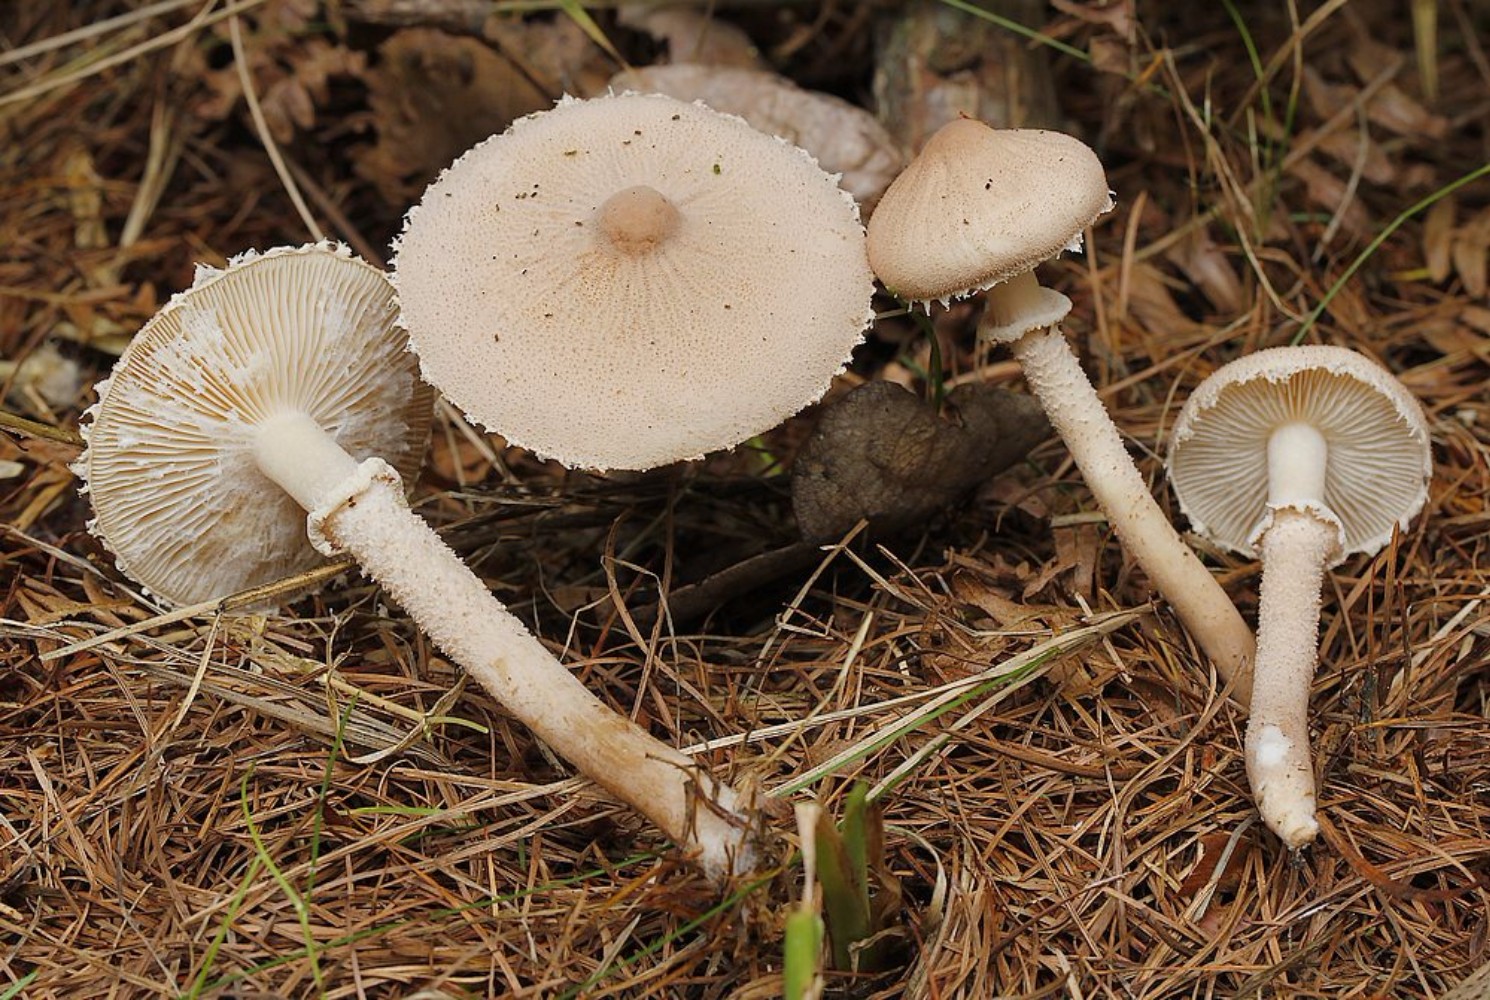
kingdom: Fungi
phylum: Basidiomycota
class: Agaricomycetes
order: Agaricales
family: Tricholomataceae
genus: Cystoderma
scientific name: Cystoderma carcharias
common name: rødgrå grynhat
